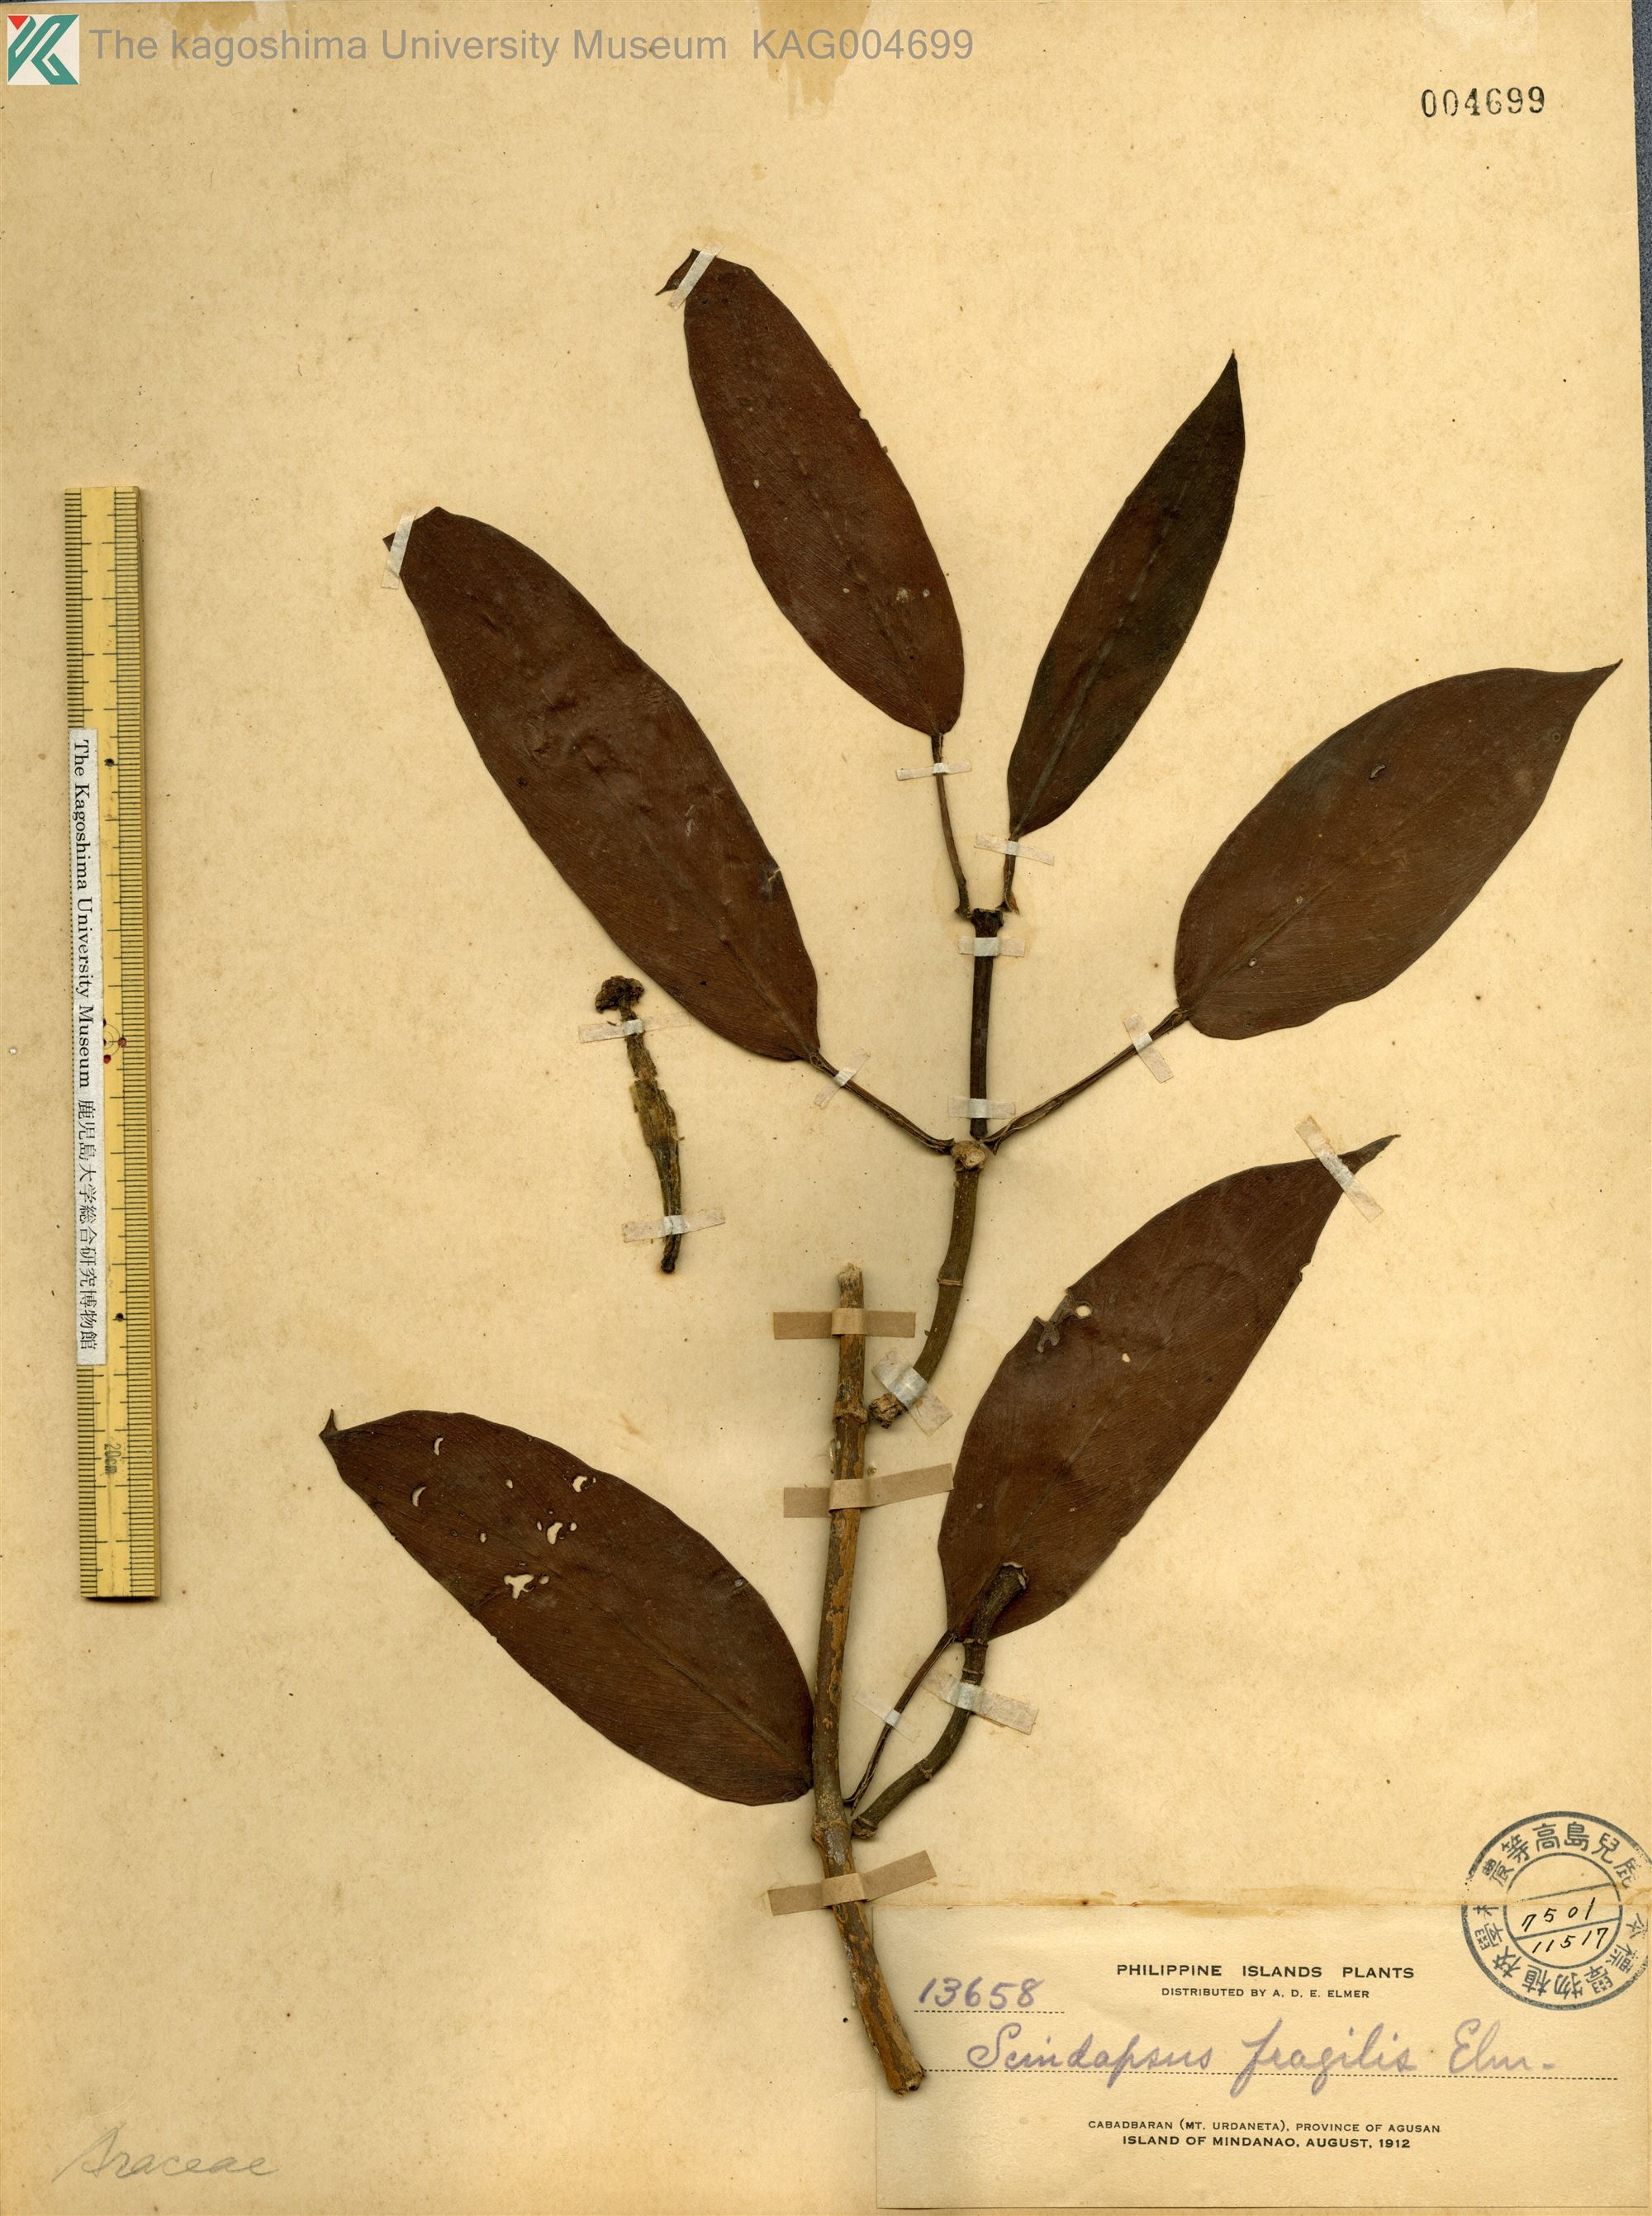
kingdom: Plantae
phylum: Tracheophyta
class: Liliopsida
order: Alismatales
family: Araceae
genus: Rhaphidophora
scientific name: Rhaphidophora sylvestris
